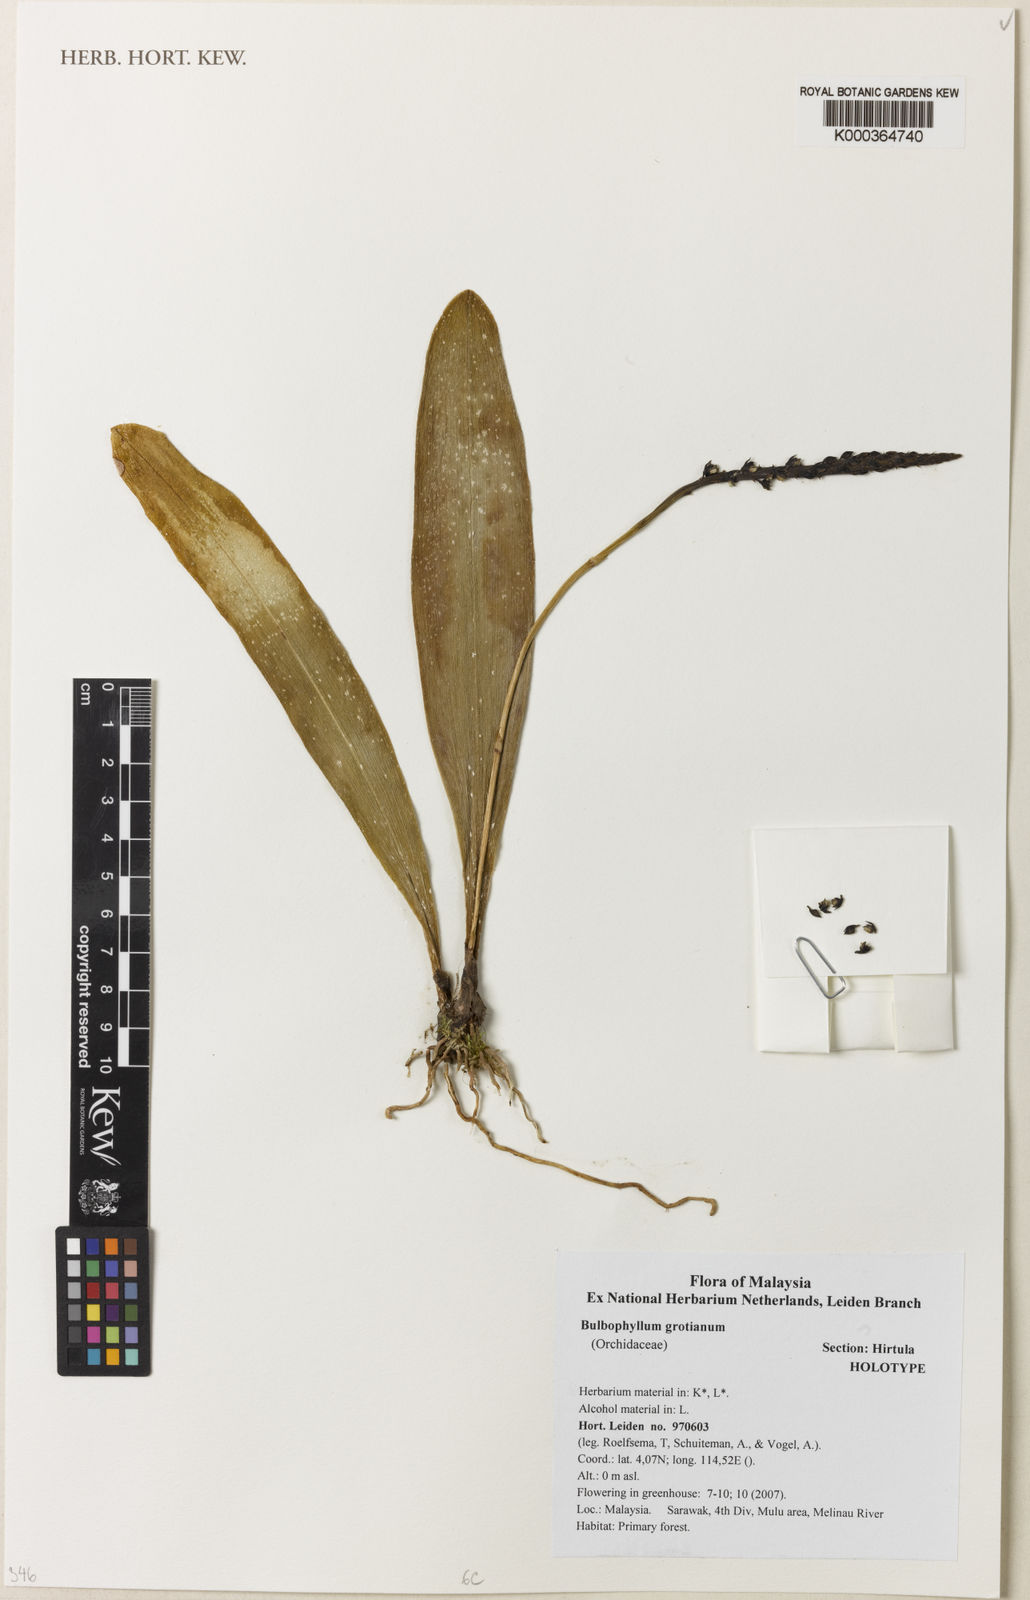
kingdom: Plantae
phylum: Tracheophyta
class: Liliopsida
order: Asparagales
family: Orchidaceae
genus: Bulbophyllum
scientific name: Bulbophyllum grotianum
